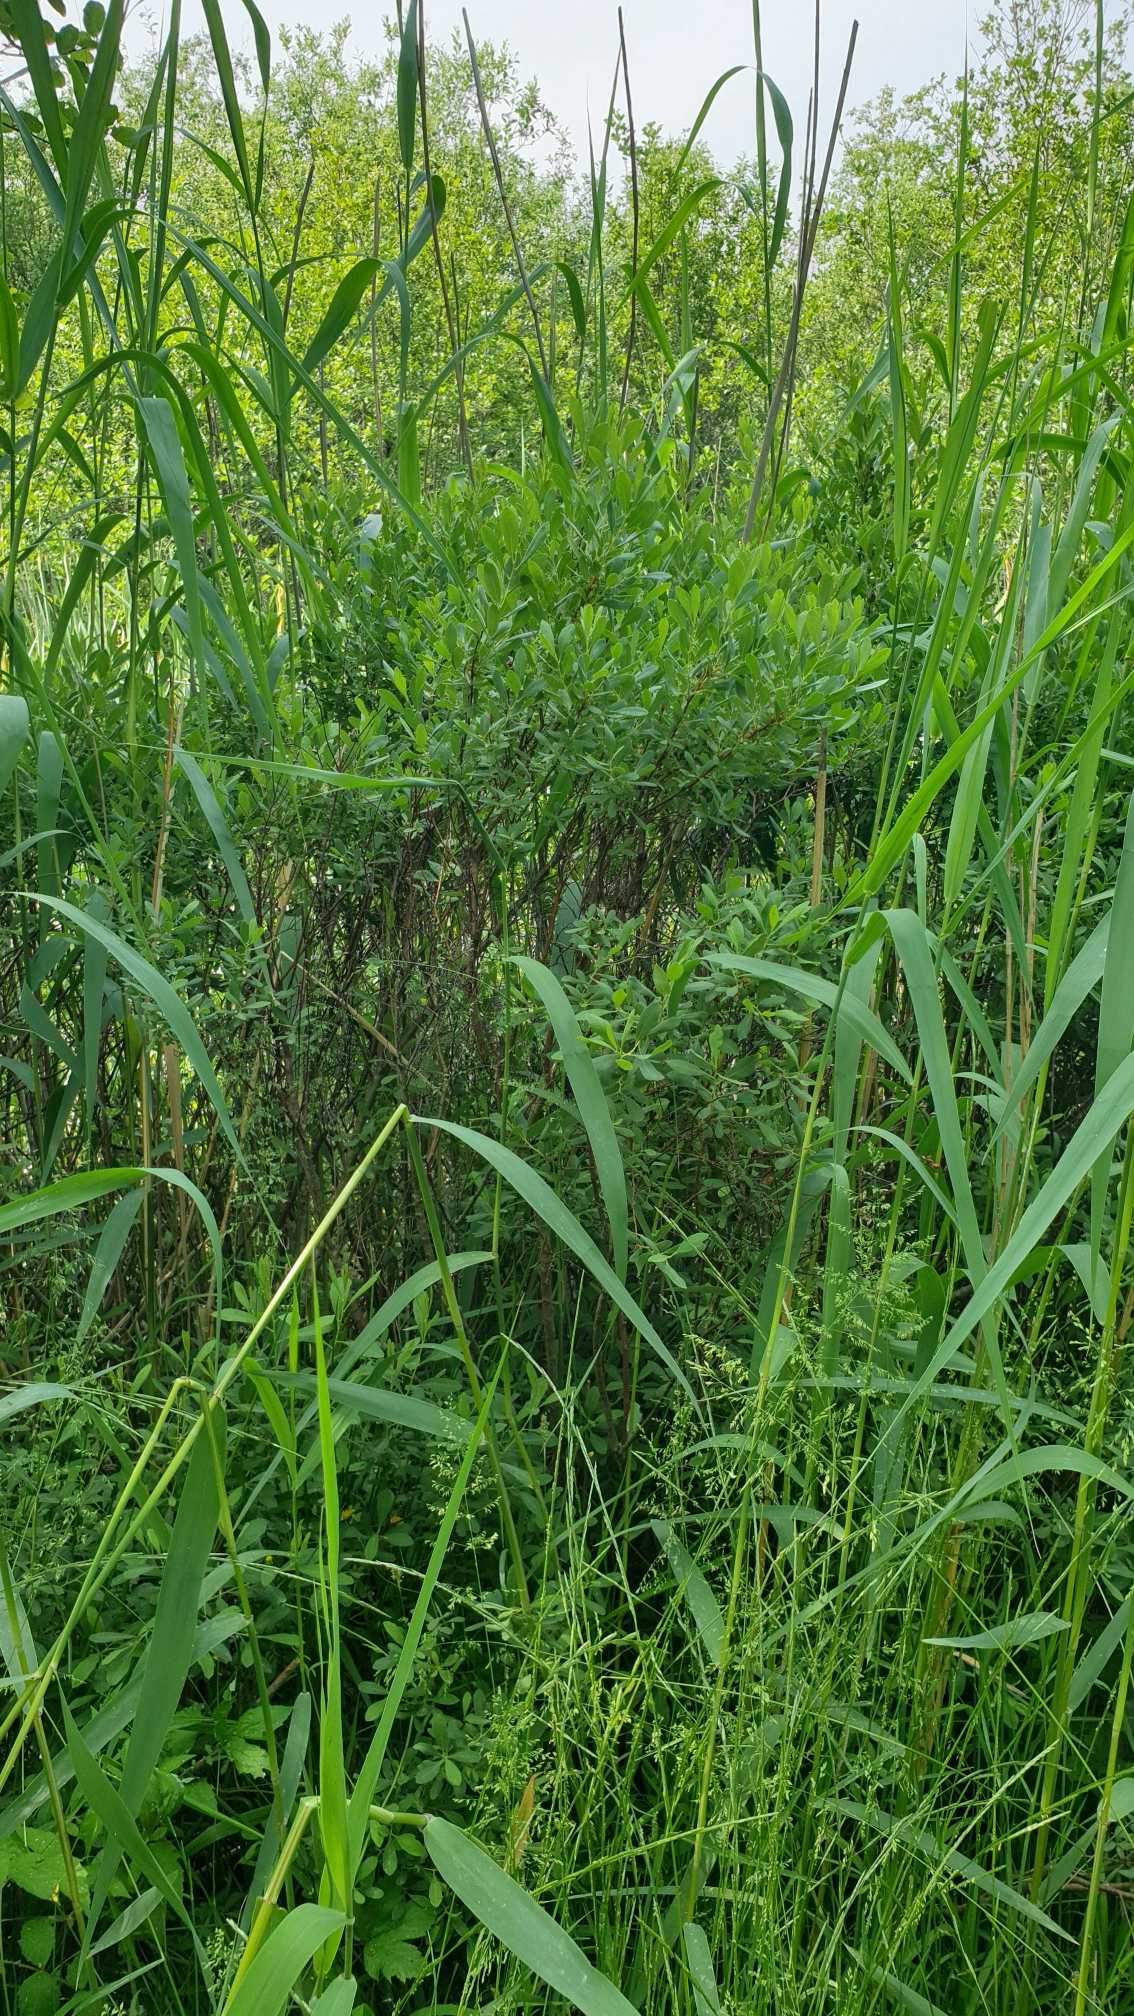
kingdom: Plantae
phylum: Tracheophyta
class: Magnoliopsida
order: Fagales
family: Myricaceae
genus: Myrica
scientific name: Myrica gale
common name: Pors
